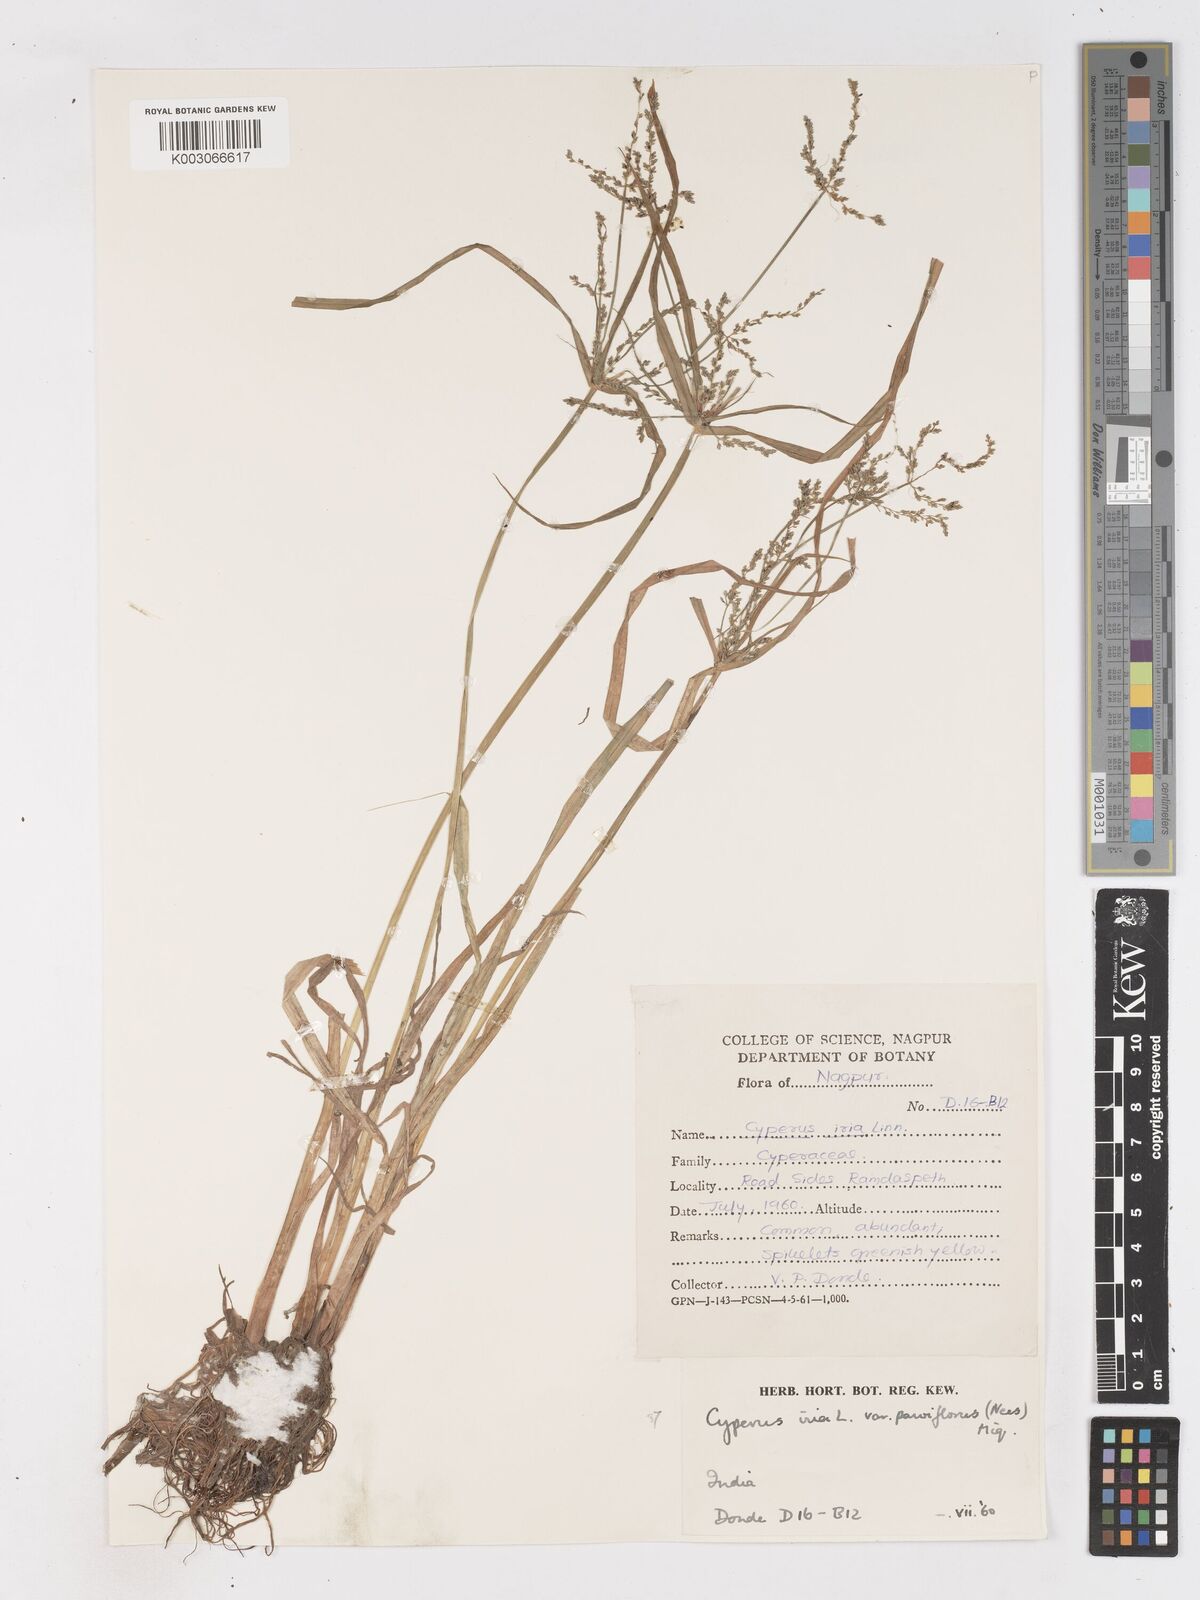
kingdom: Plantae
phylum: Tracheophyta
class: Liliopsida
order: Poales
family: Cyperaceae
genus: Cyperus
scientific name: Cyperus microiria
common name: Asian flatsedge
